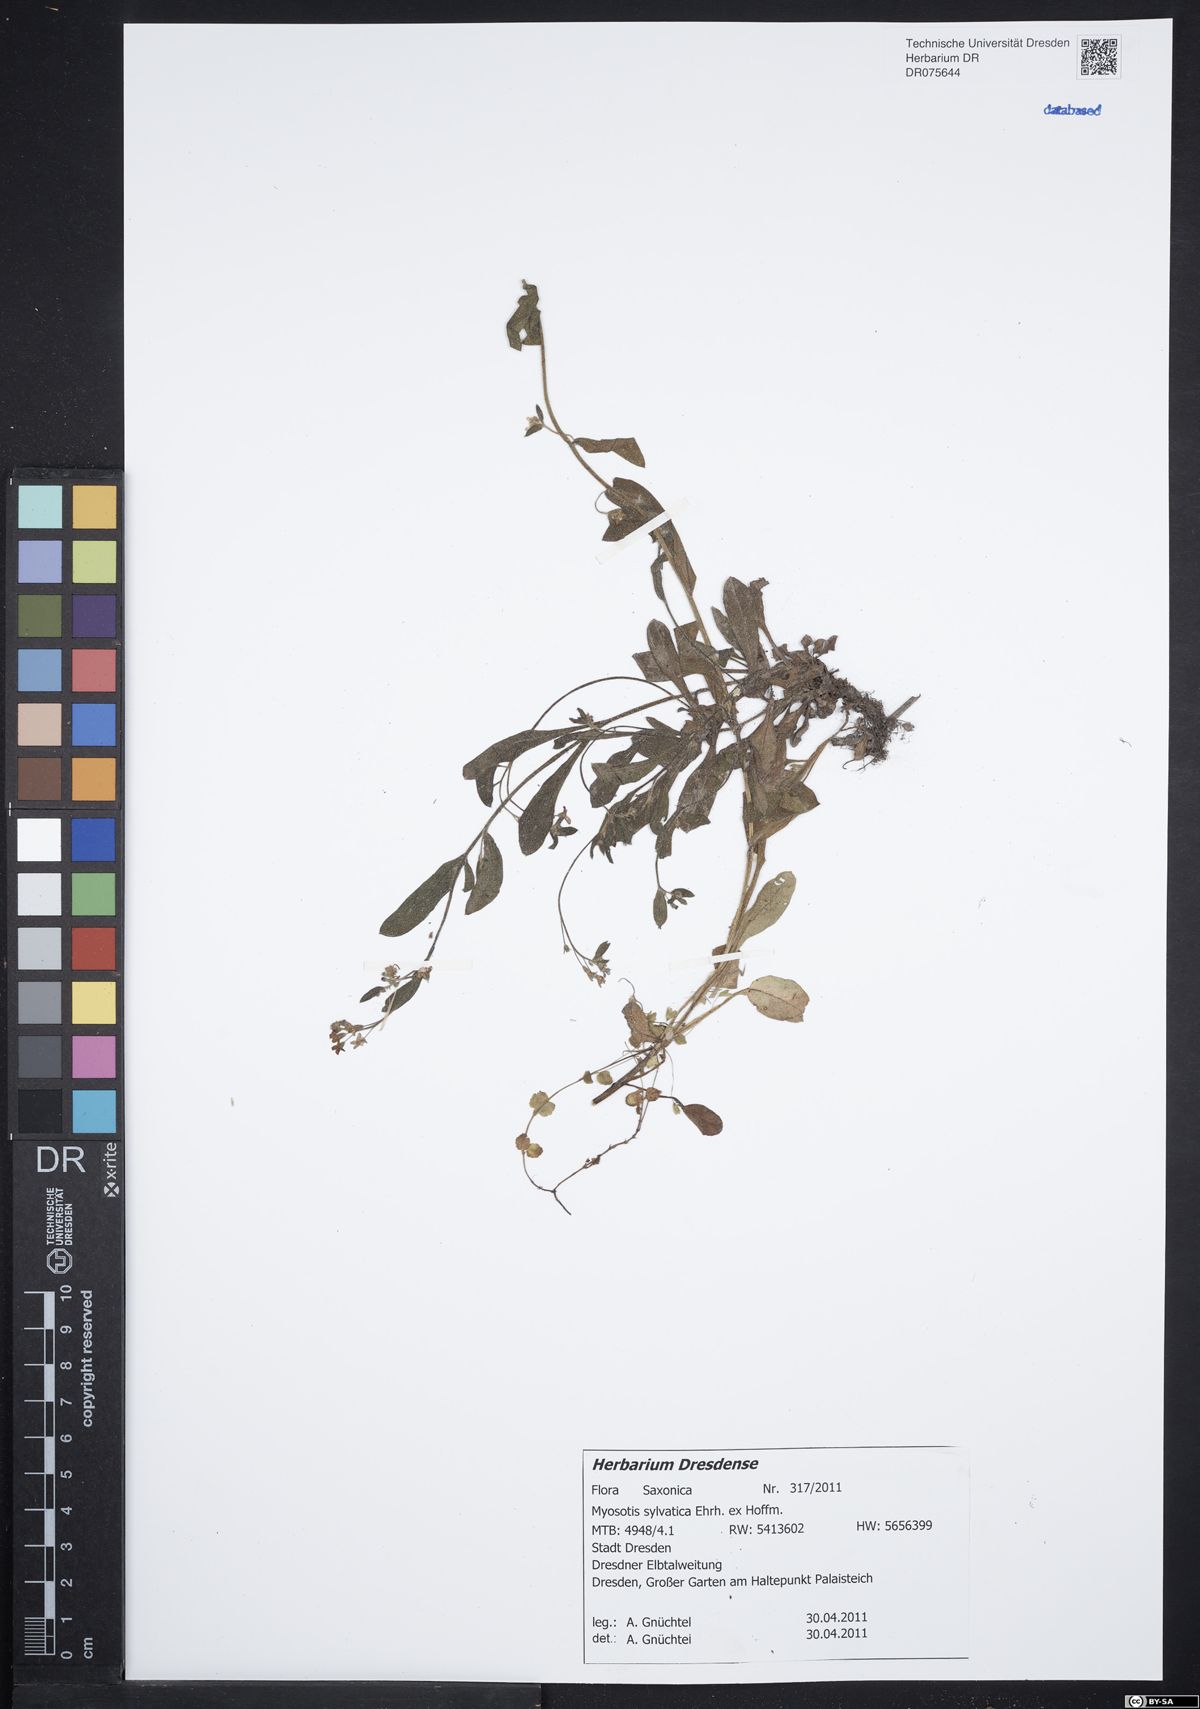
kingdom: Plantae
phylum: Tracheophyta
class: Magnoliopsida
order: Boraginales
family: Boraginaceae
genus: Myosotis
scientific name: Myosotis sylvatica
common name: Wood forget-me-not
